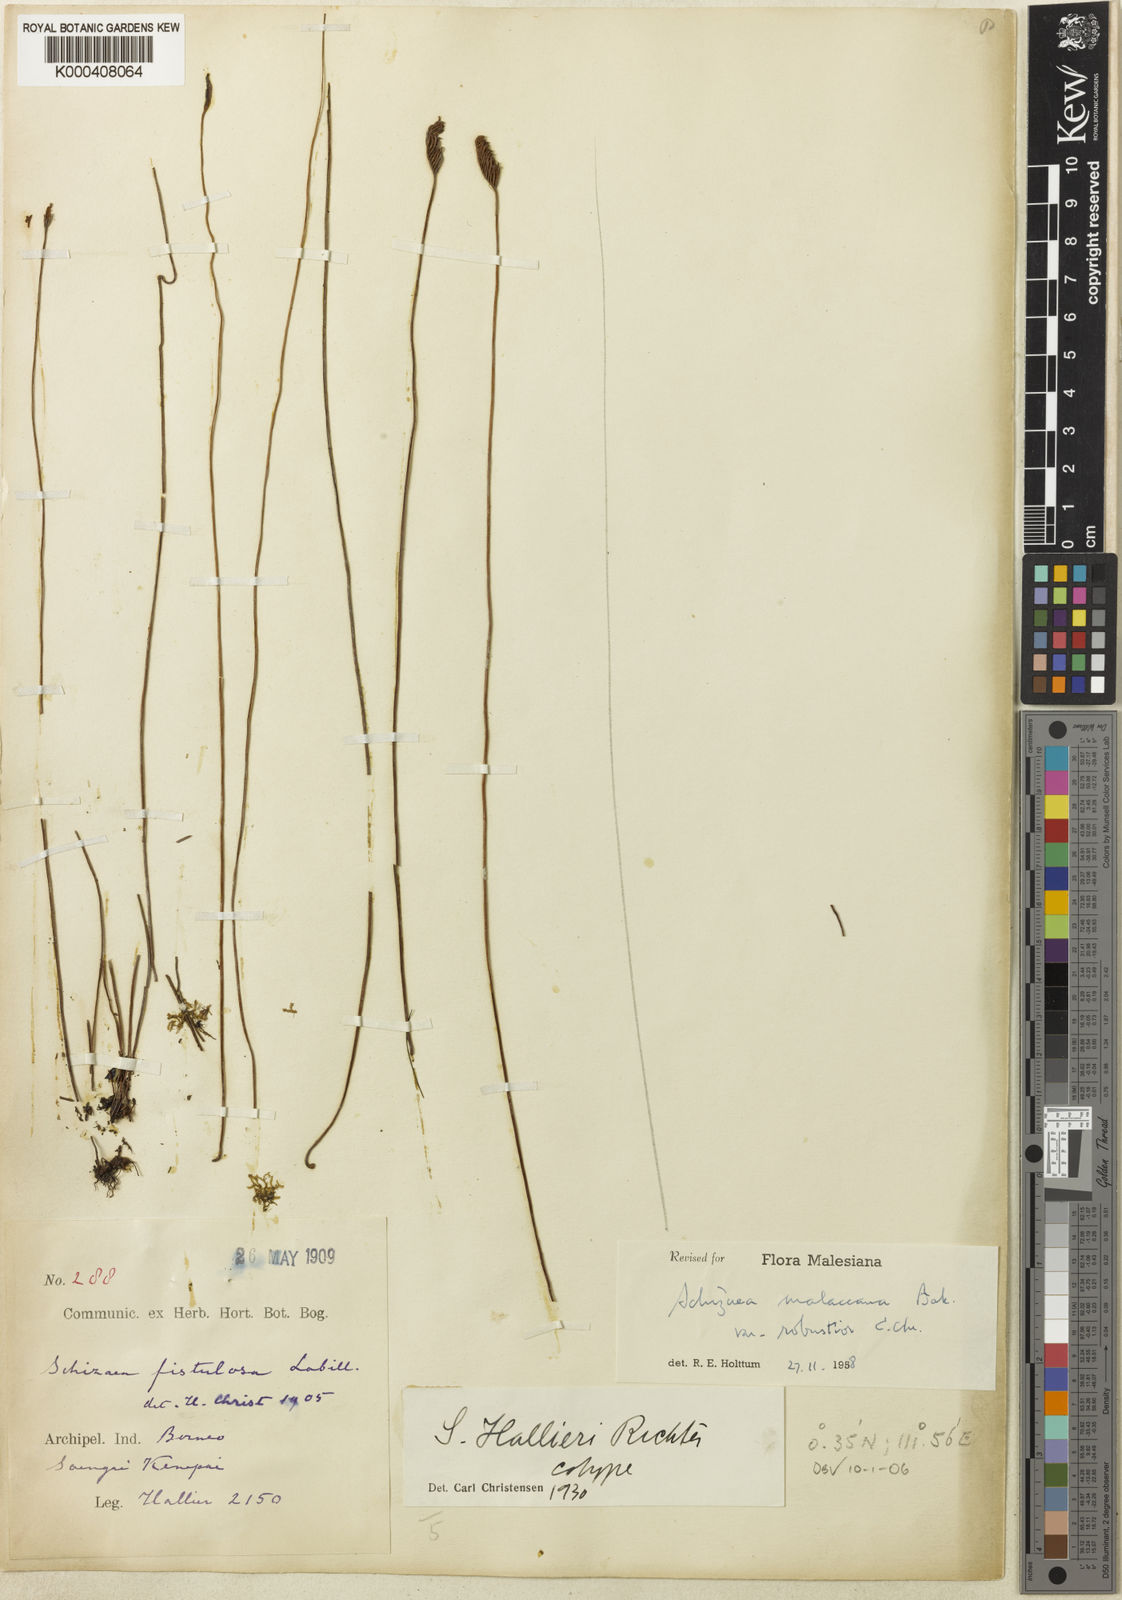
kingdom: Plantae
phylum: Tracheophyta
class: Polypodiopsida
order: Schizaeales
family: Schizaeaceae
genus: Microschizaea
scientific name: Microschizaea hallieri
